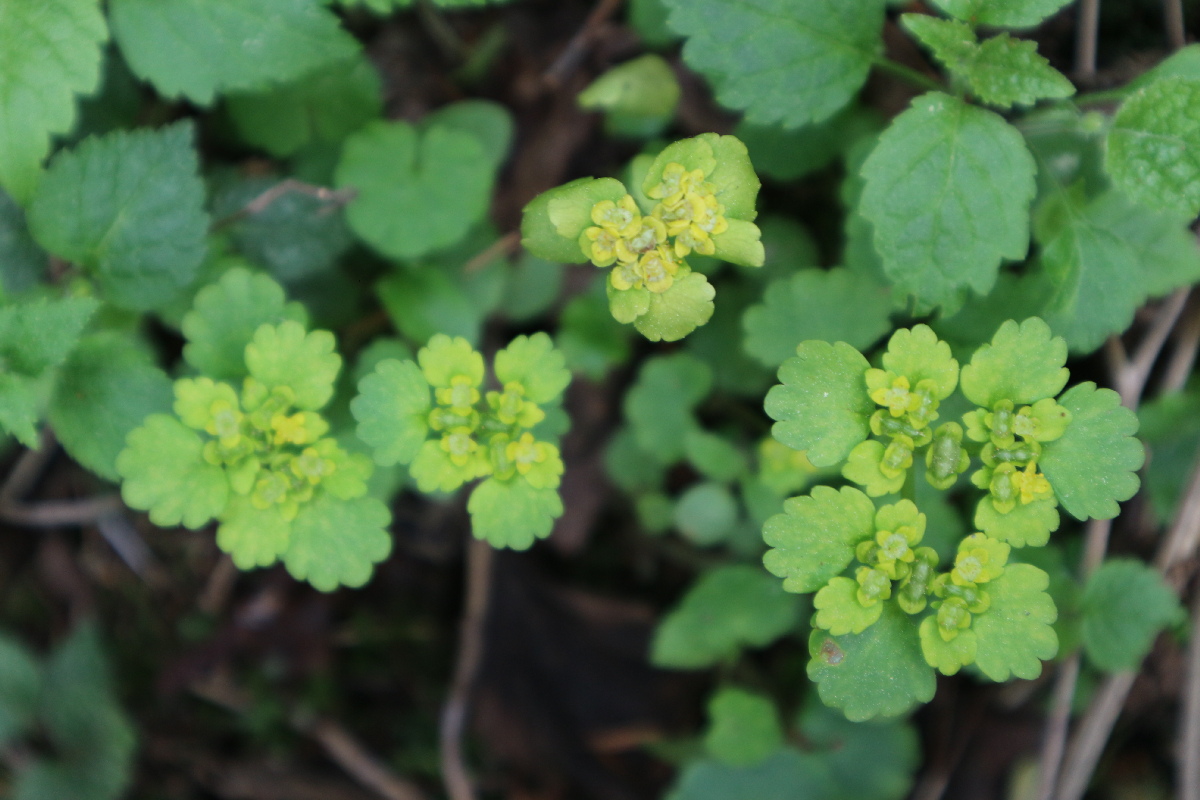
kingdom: Plantae
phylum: Tracheophyta
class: Magnoliopsida
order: Saxifragales
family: Saxifragaceae
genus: Chrysosplenium
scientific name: Chrysosplenium alternifolium
